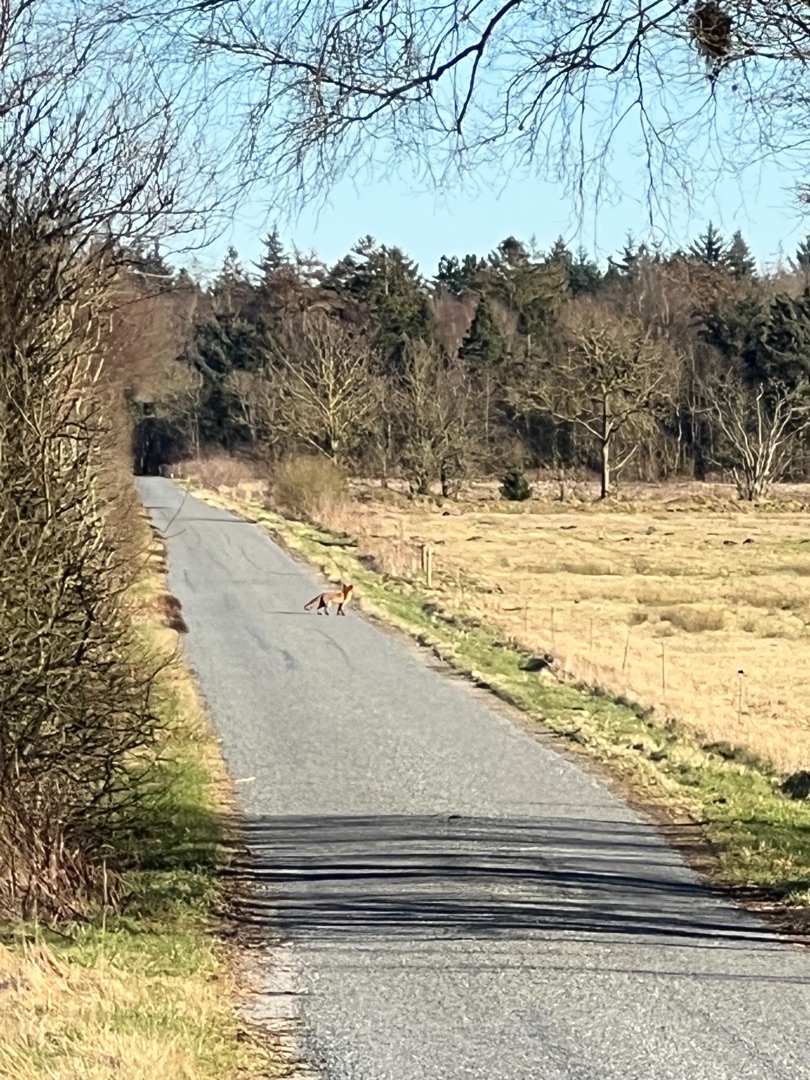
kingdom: Animalia
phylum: Chordata
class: Mammalia
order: Carnivora
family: Canidae
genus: Vulpes
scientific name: Vulpes vulpes
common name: Ræv
